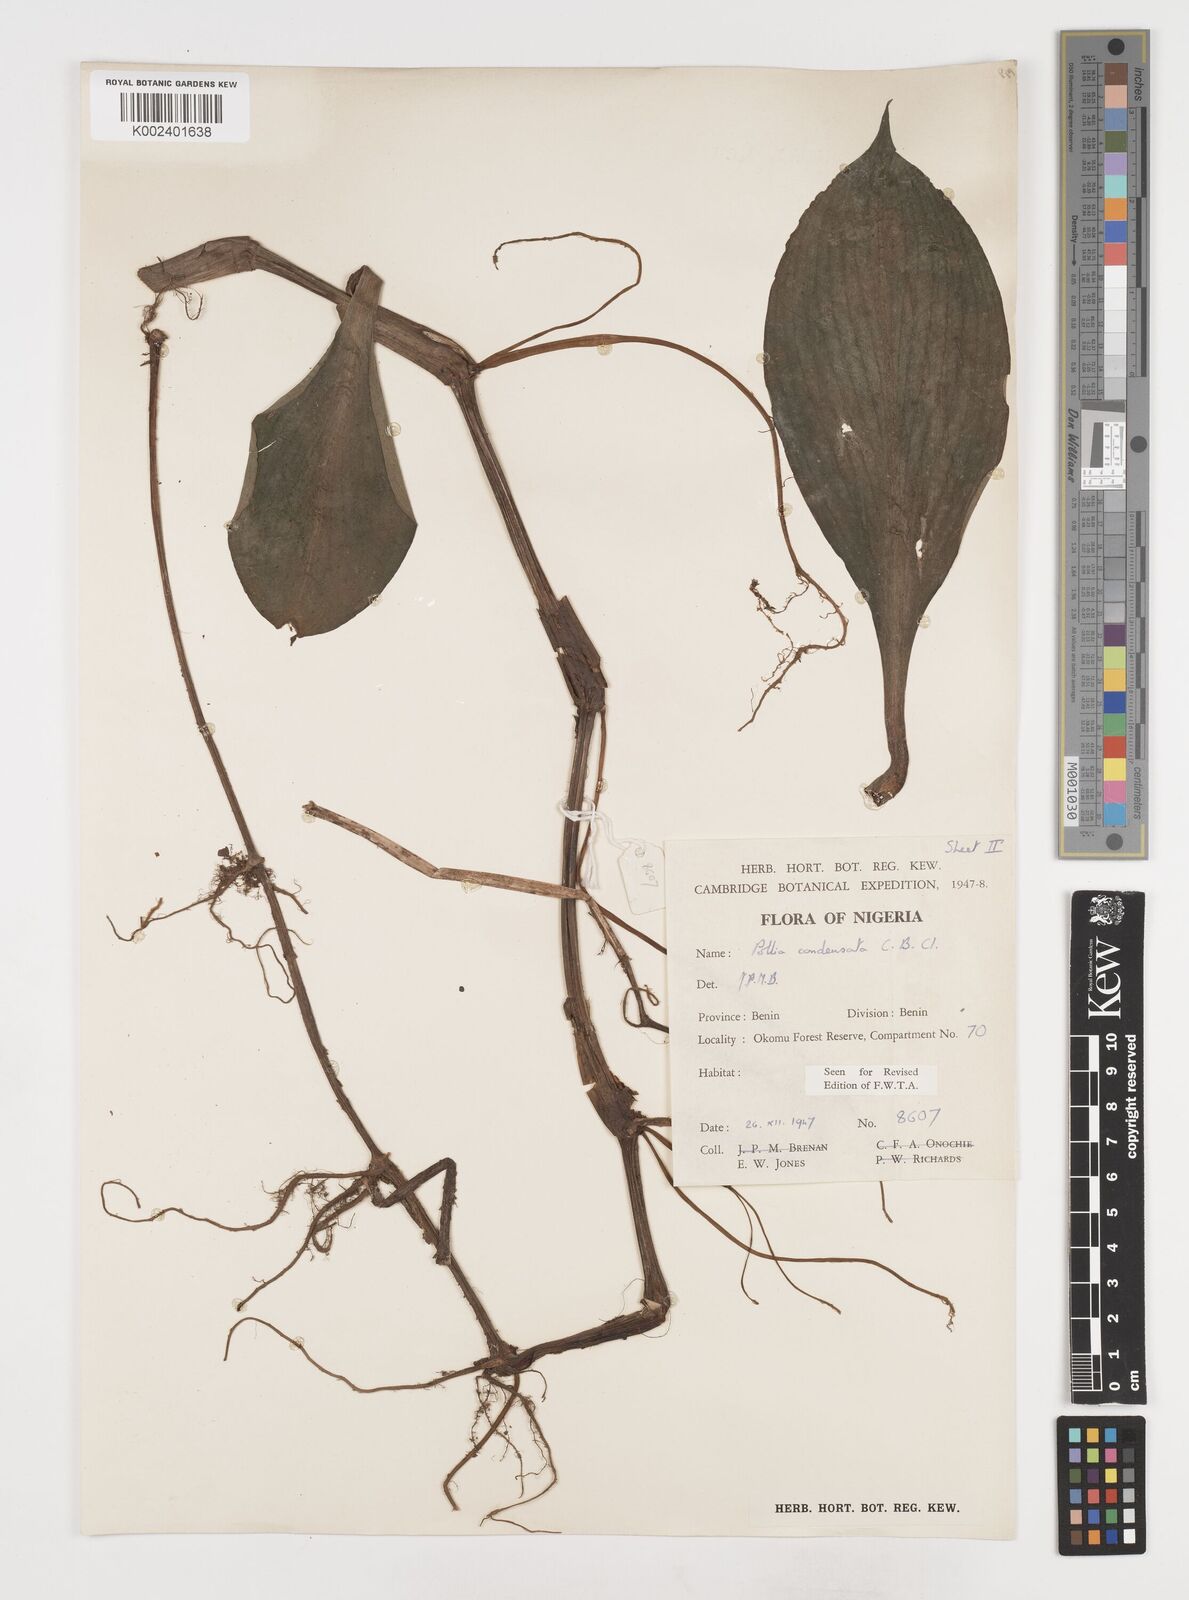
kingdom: Plantae
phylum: Tracheophyta
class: Liliopsida
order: Commelinales
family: Commelinaceae
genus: Pollia
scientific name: Pollia condensata
